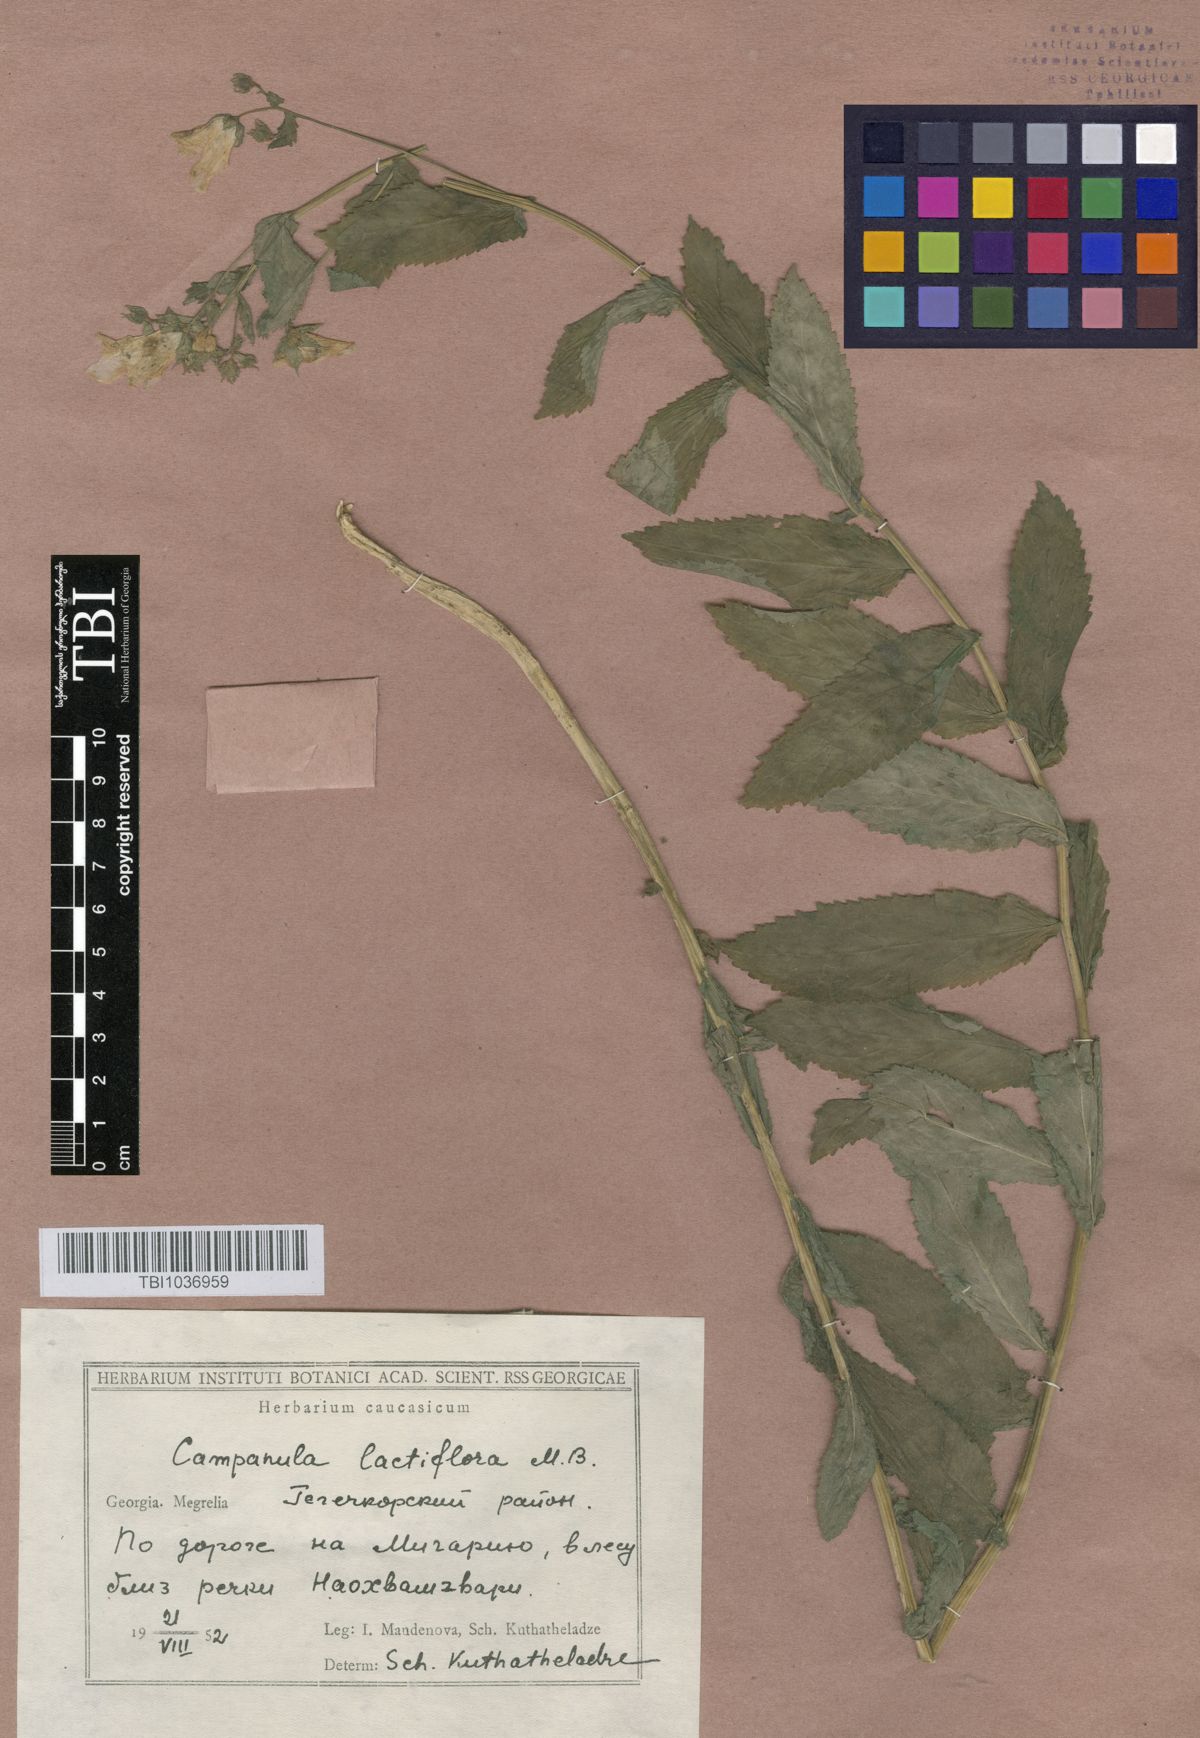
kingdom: Plantae
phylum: Tracheophyta
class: Magnoliopsida
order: Asterales
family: Campanulaceae
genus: Campanula
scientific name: Campanula lactiflora
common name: Milky bellflower
